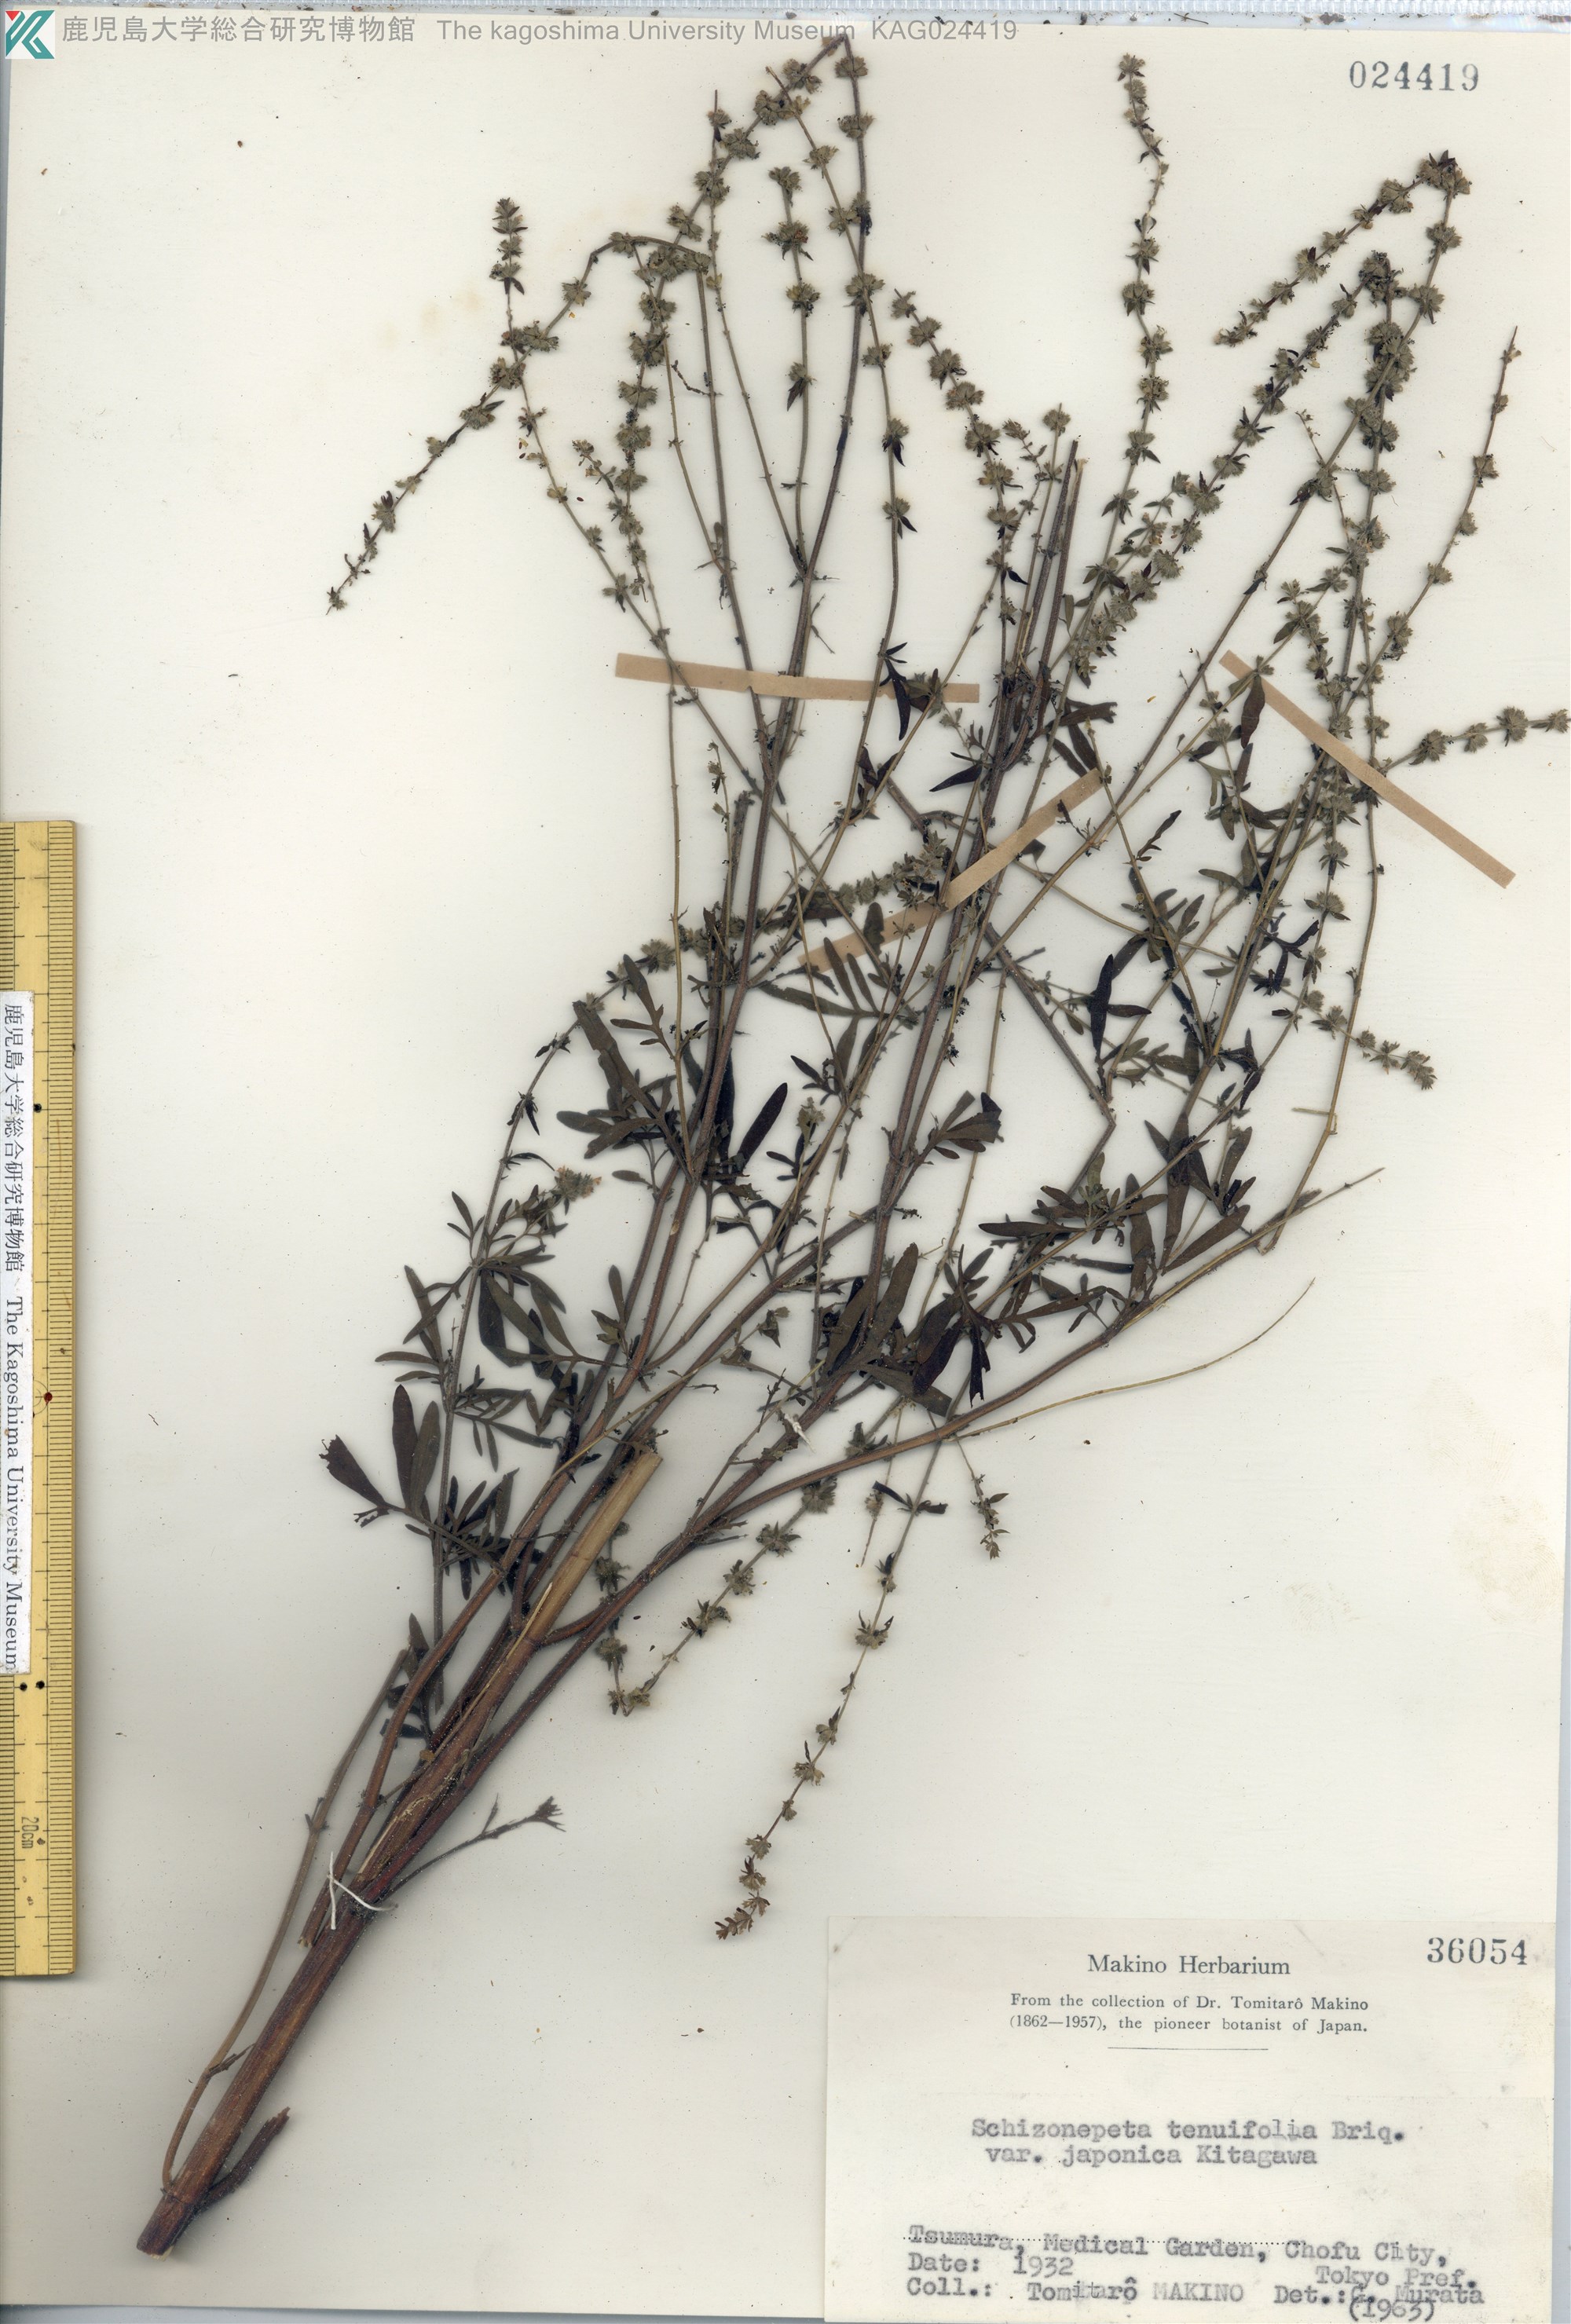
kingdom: Plantae
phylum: Tracheophyta
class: Magnoliopsida
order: Lamiales
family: Lamiaceae
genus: Nepeta
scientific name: Nepeta tenuifolia
